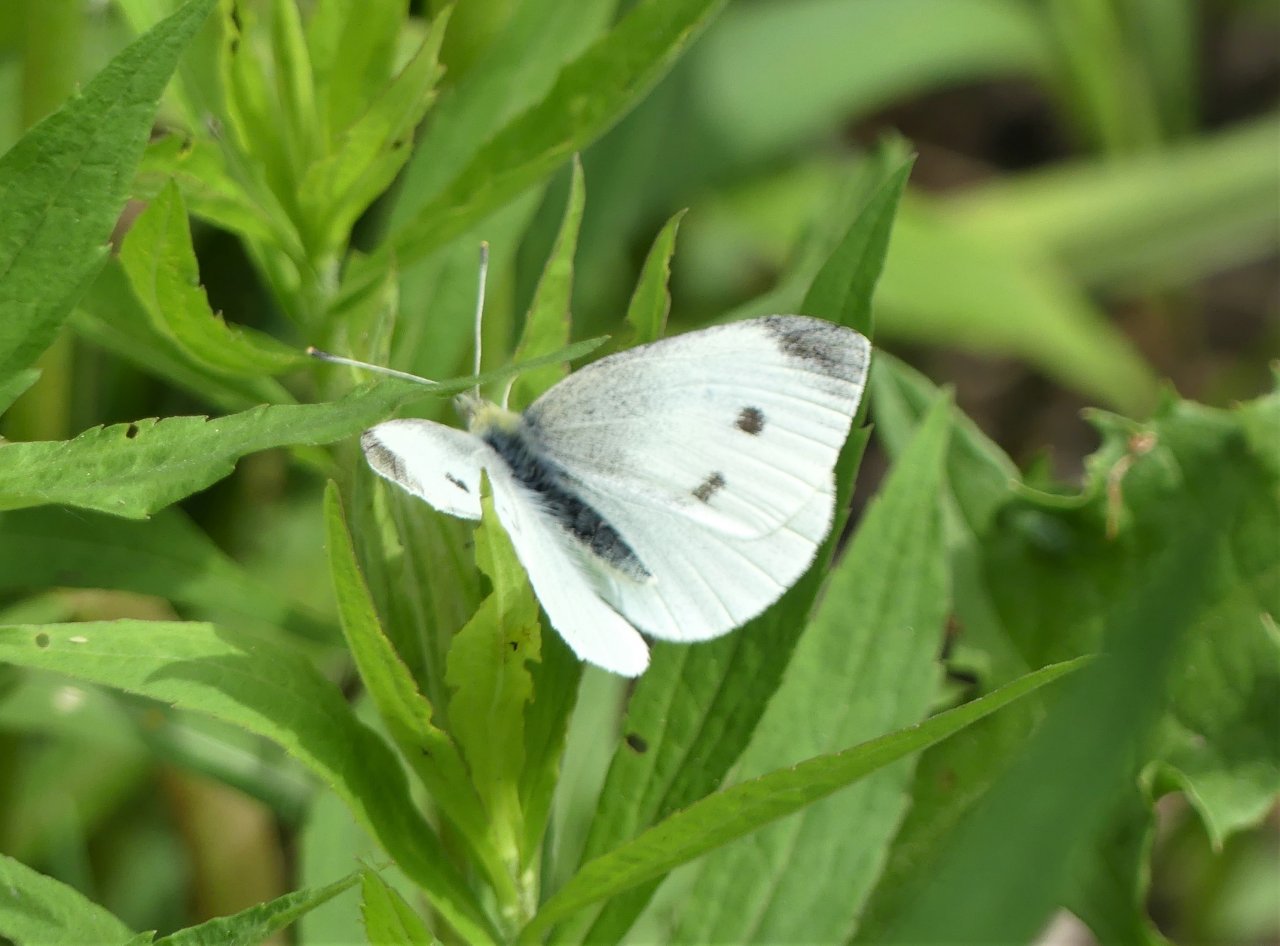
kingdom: Animalia
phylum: Arthropoda
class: Insecta
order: Lepidoptera
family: Pieridae
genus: Pieris
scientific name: Pieris rapae
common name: Cabbage White
